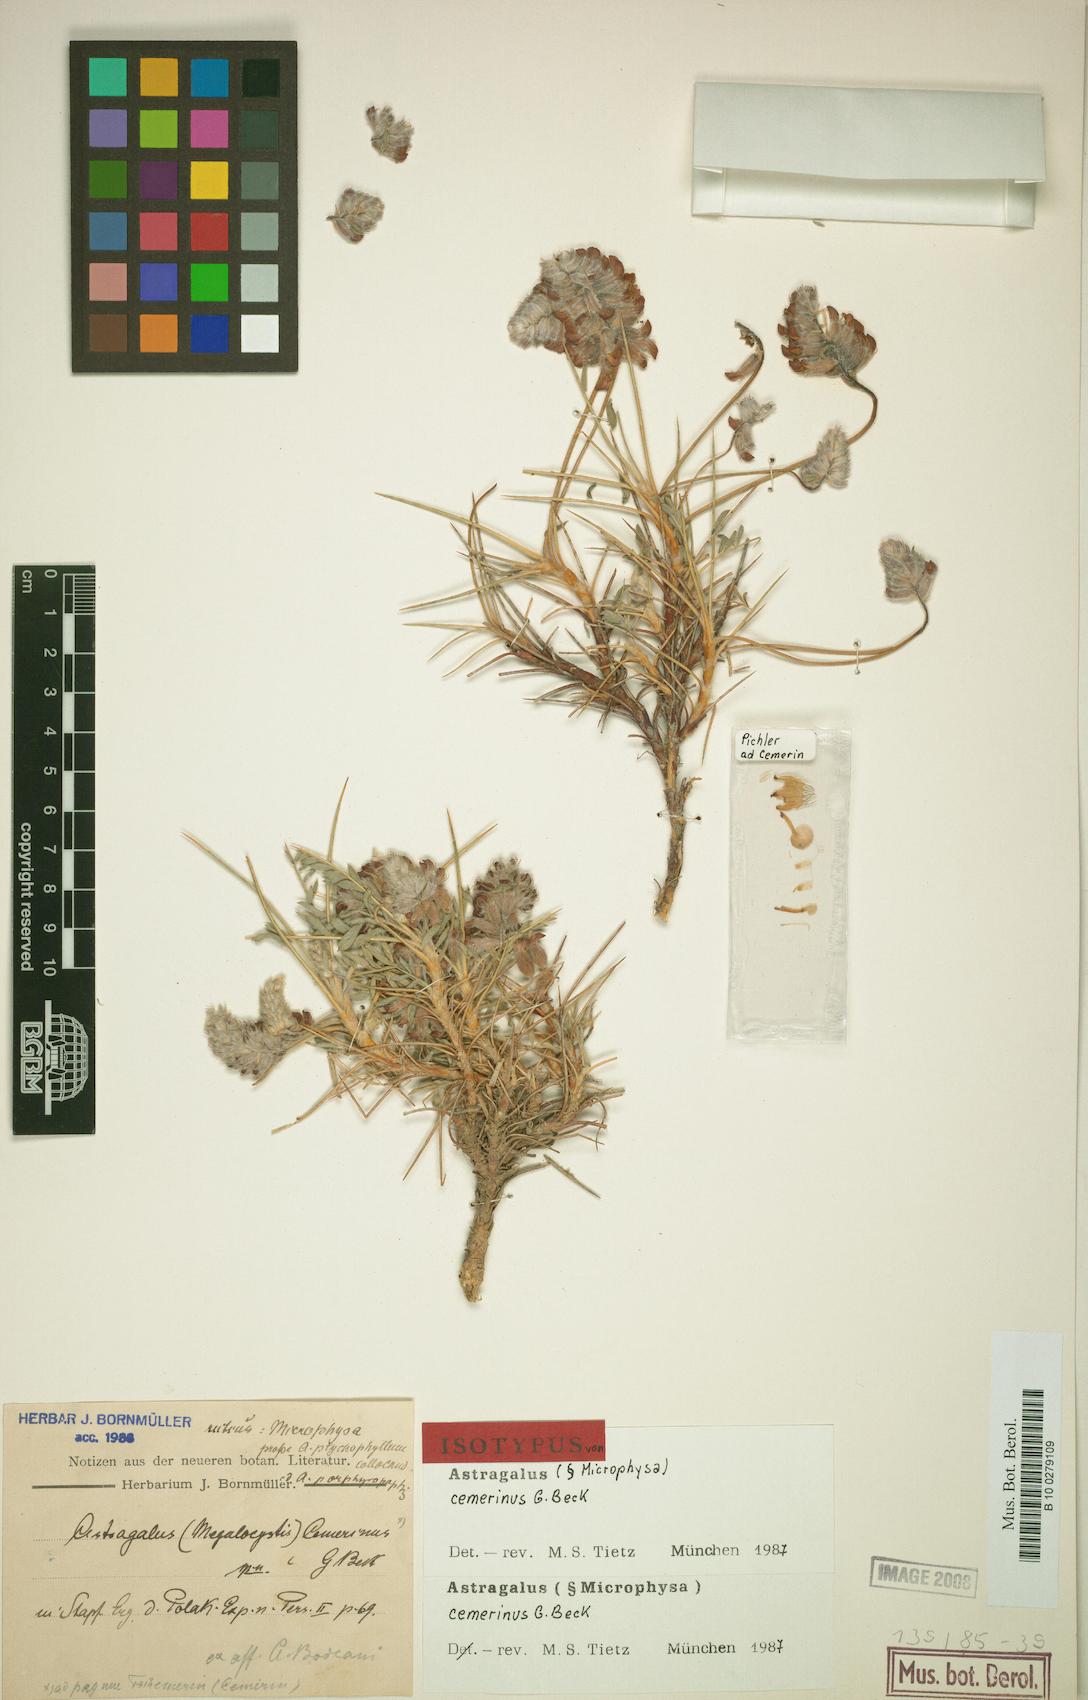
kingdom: Plantae
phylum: Tracheophyta
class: Magnoliopsida
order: Fabales
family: Fabaceae
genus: Astragalus
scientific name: Astragalus cemerinus
